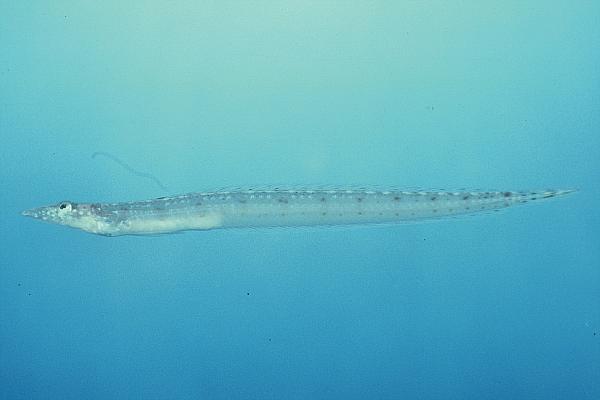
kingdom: Animalia
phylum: Chordata
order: Perciformes
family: Trichonotidae
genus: Trichonotus
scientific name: Trichonotus marleyi
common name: Sand diver
